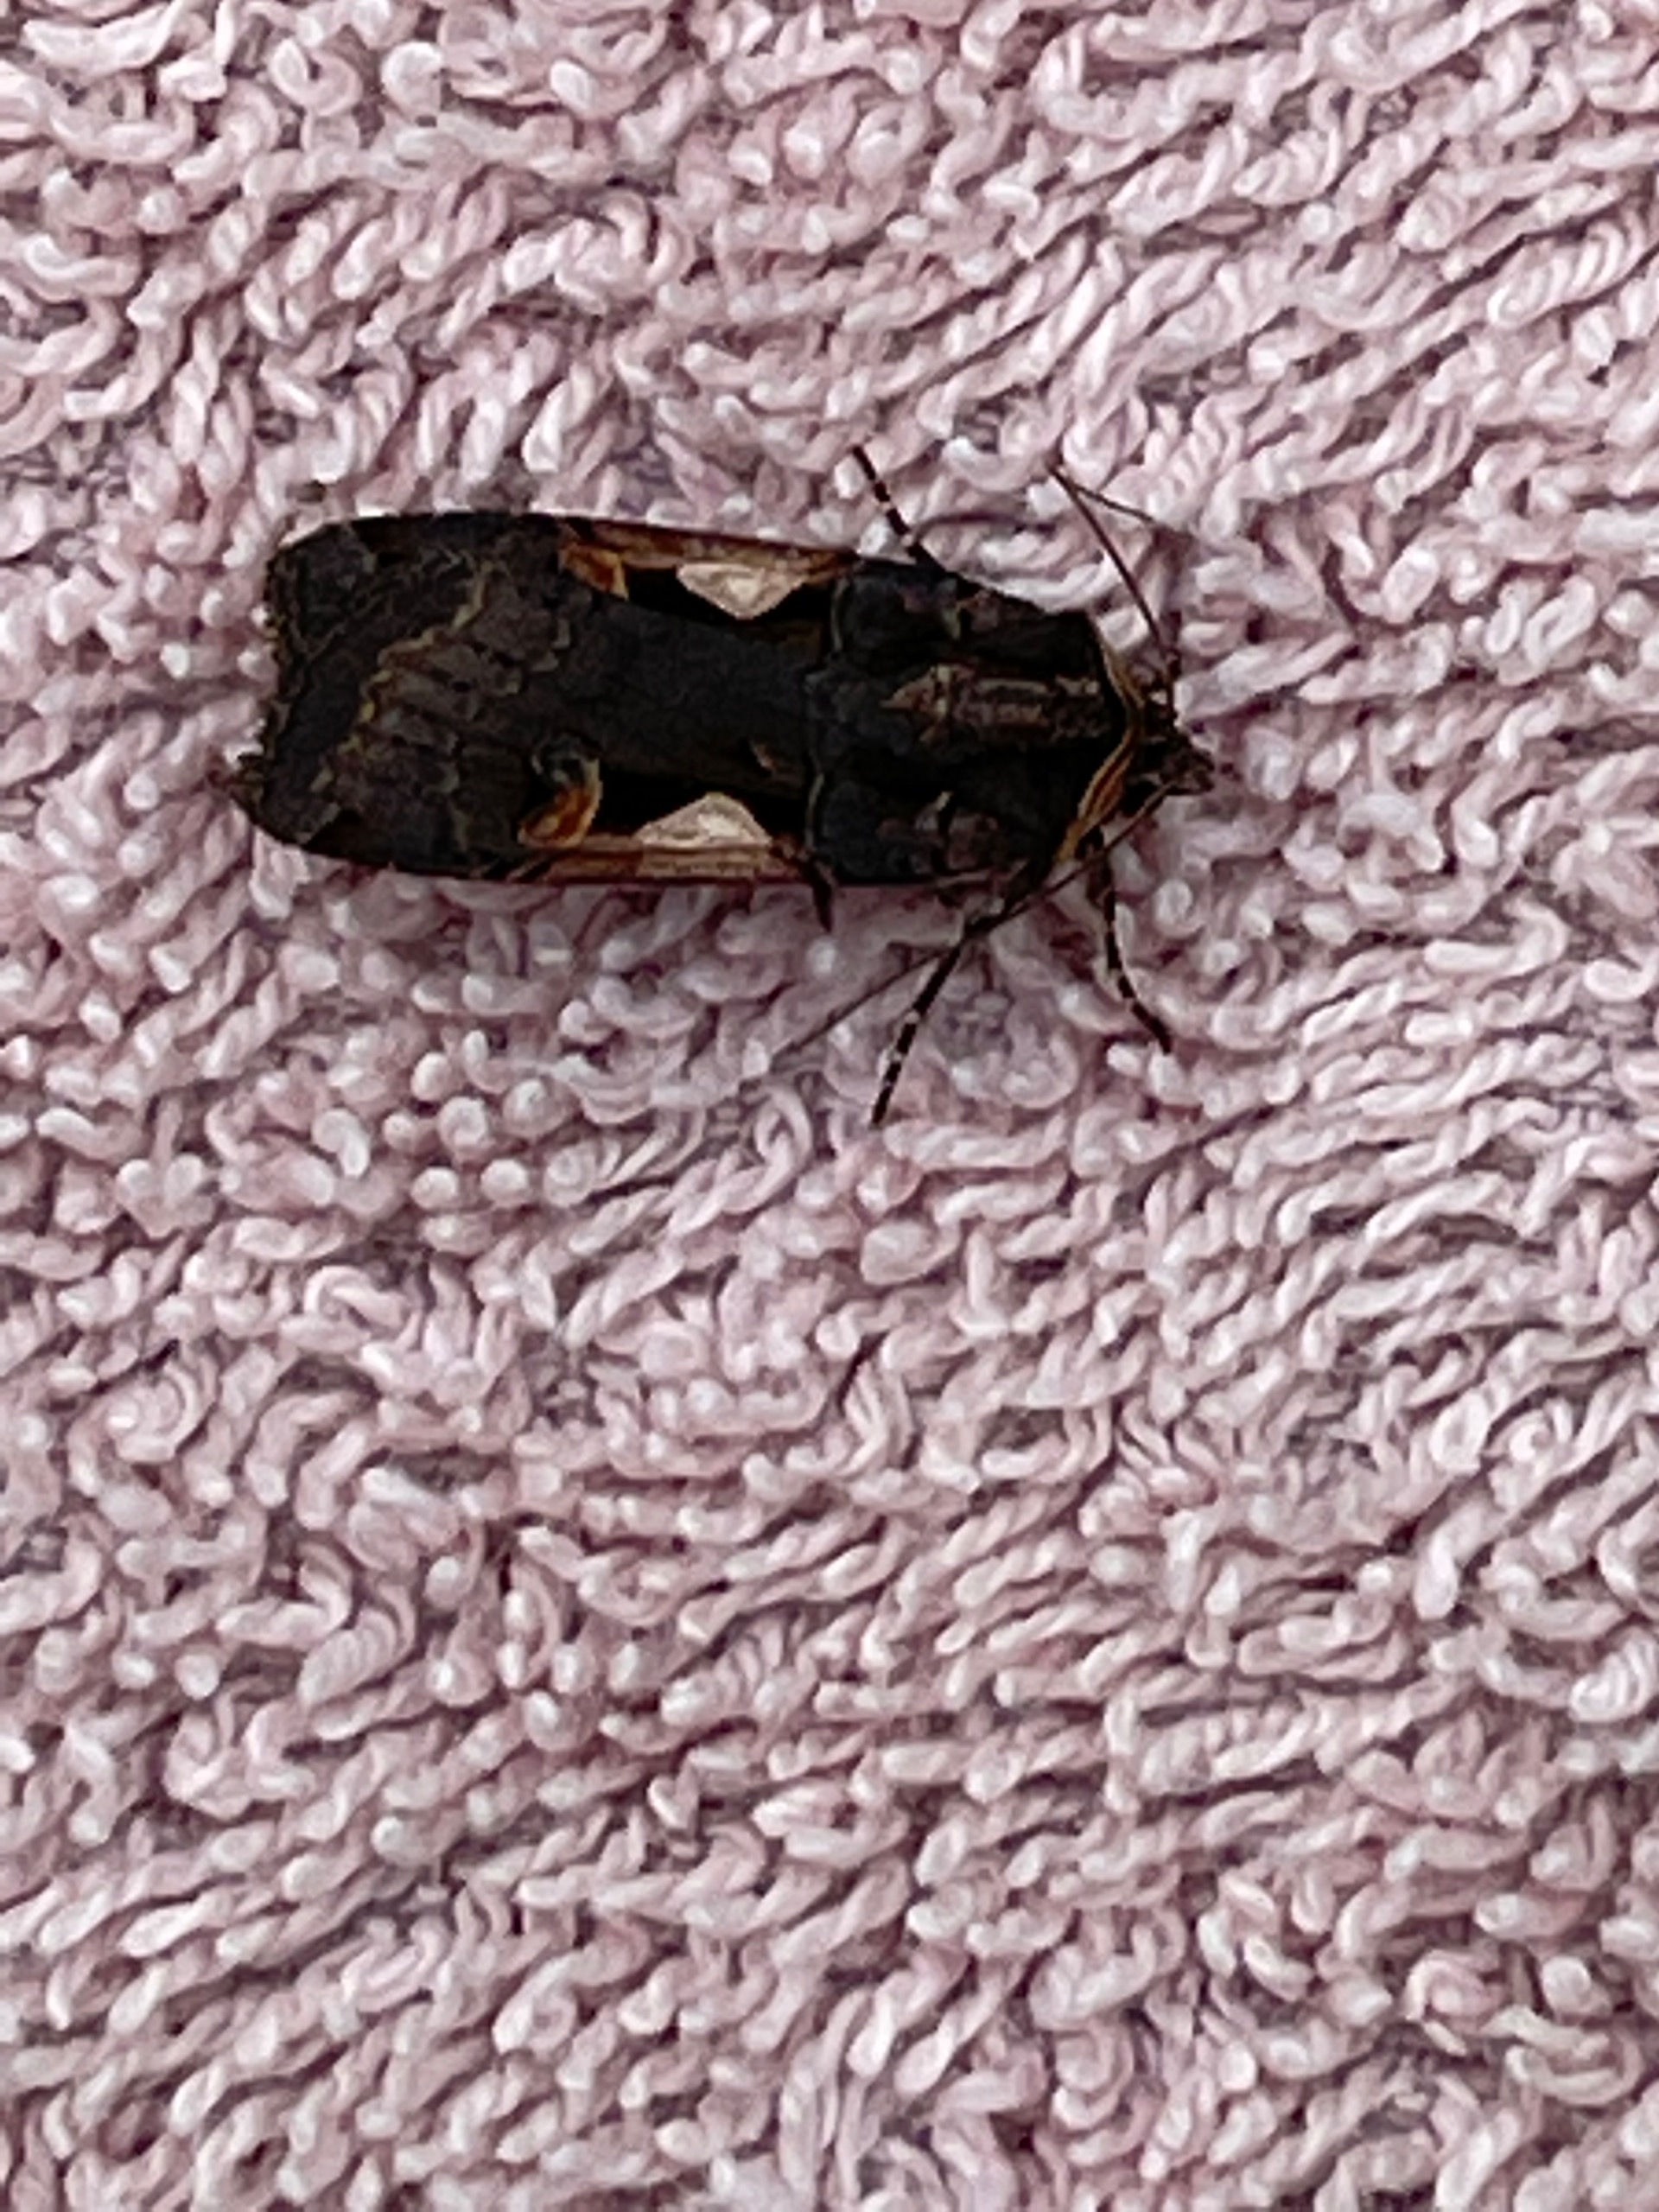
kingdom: Animalia
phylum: Arthropoda
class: Insecta
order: Lepidoptera
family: Noctuidae
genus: Xestia
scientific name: Xestia c-nigrum
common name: Det sorte c
